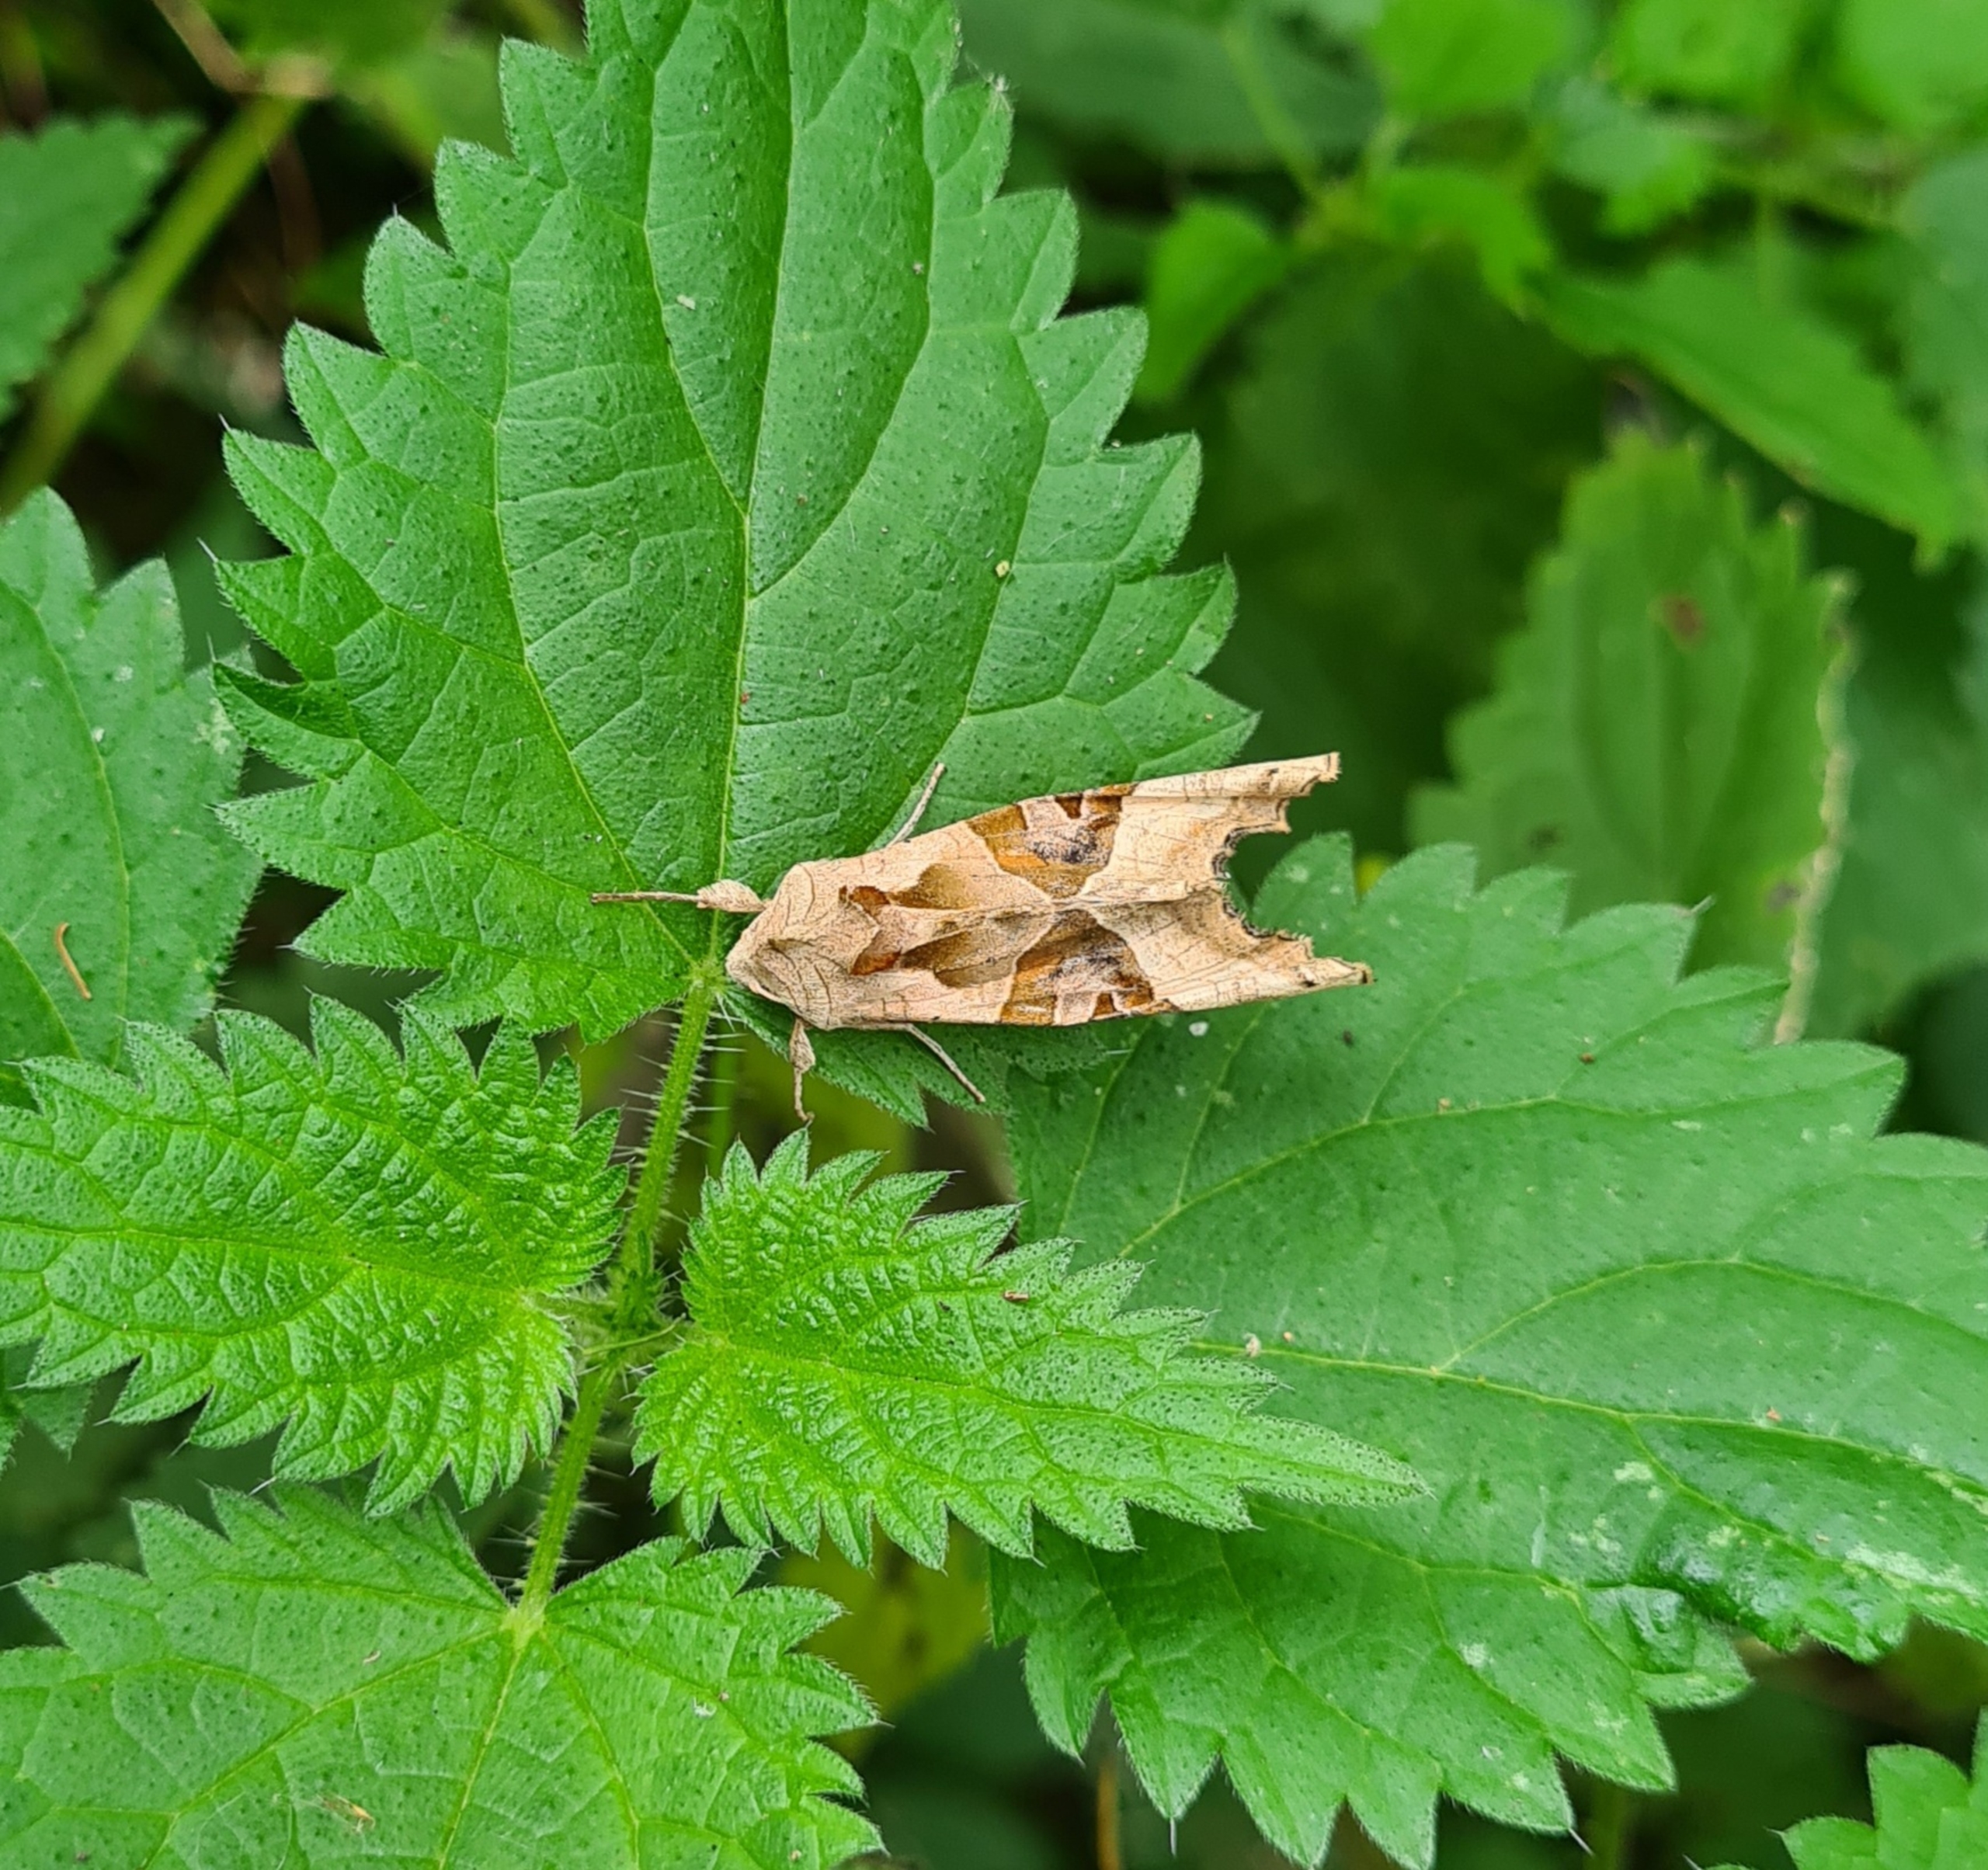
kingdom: Animalia
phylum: Arthropoda
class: Insecta
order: Lepidoptera
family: Noctuidae
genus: Phlogophora
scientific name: Phlogophora meticulosa
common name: Agatugle
